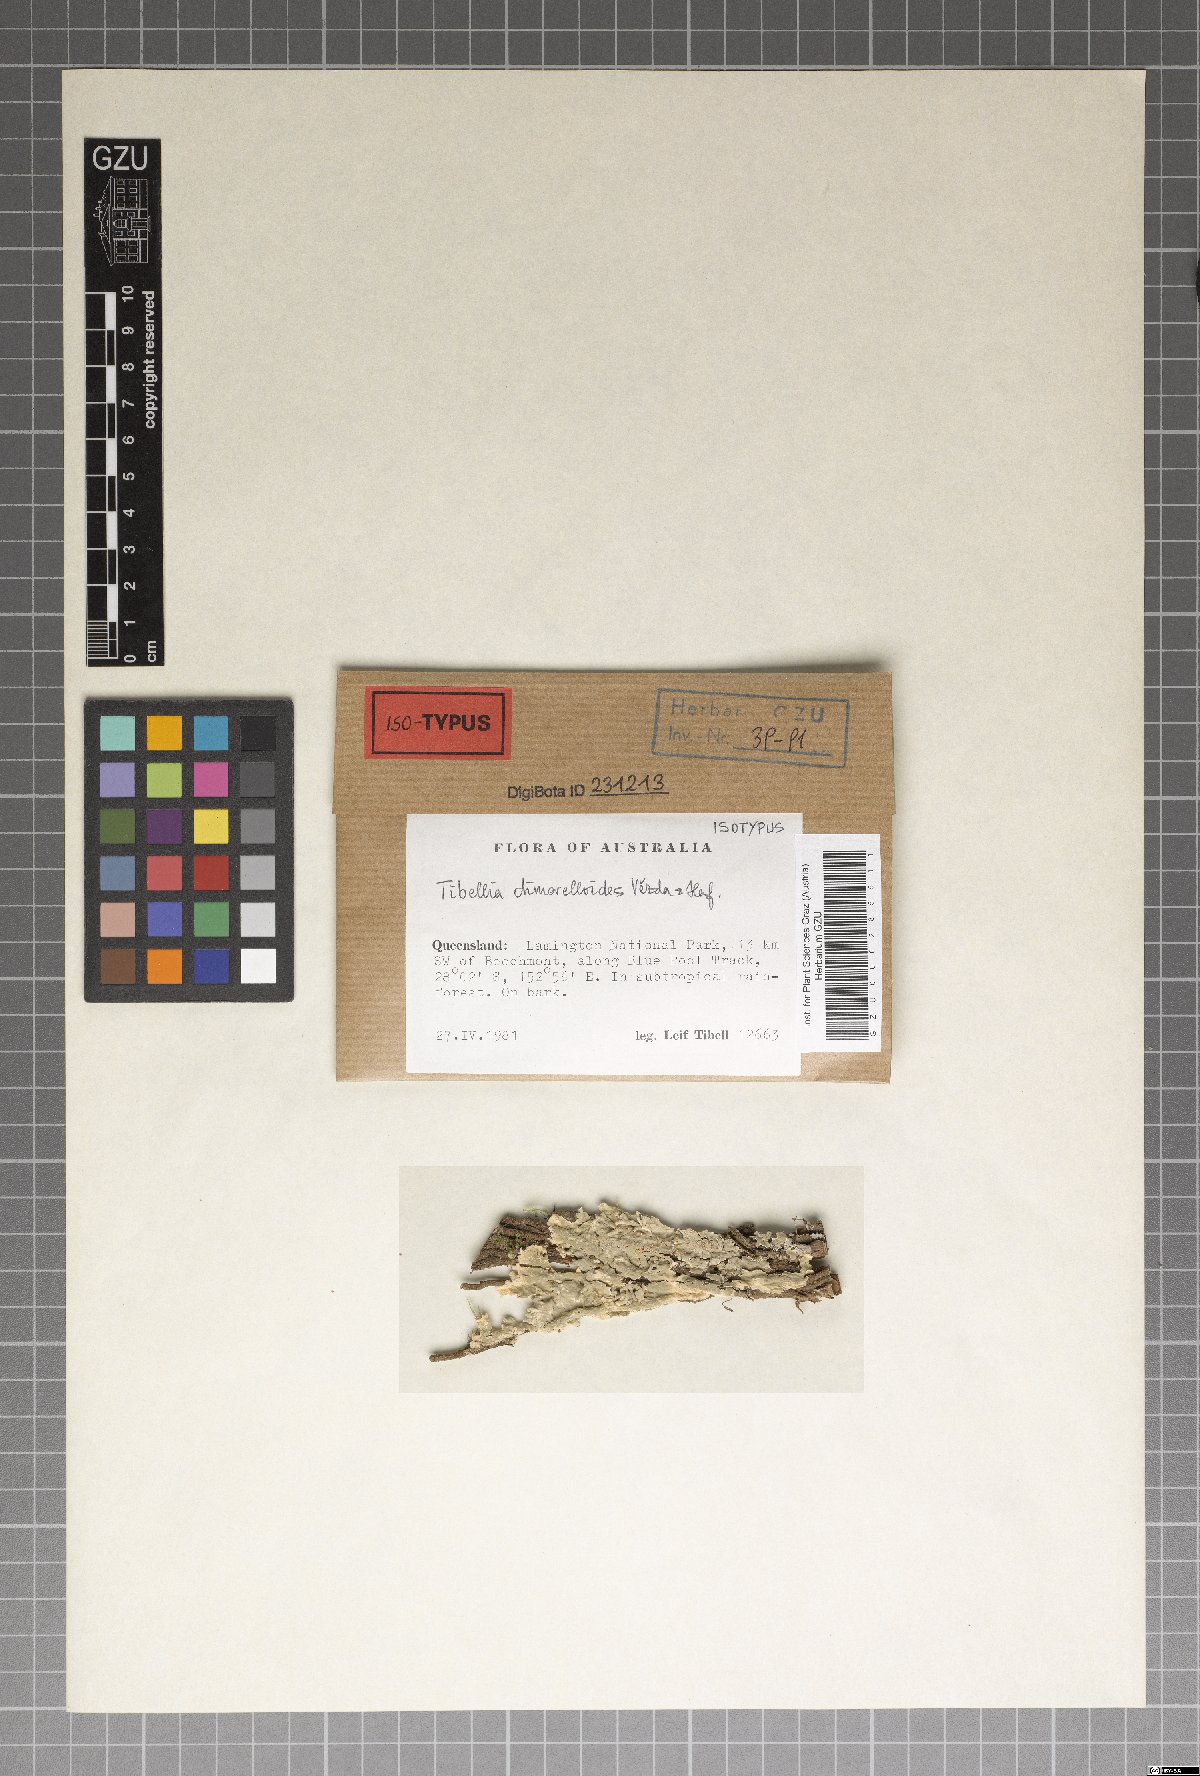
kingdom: Fungi
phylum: Ascomycota
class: Lecanoromycetes
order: Lecanorales
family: Ramalinaceae
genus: Tibellia
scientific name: Tibellia dimerelloides
